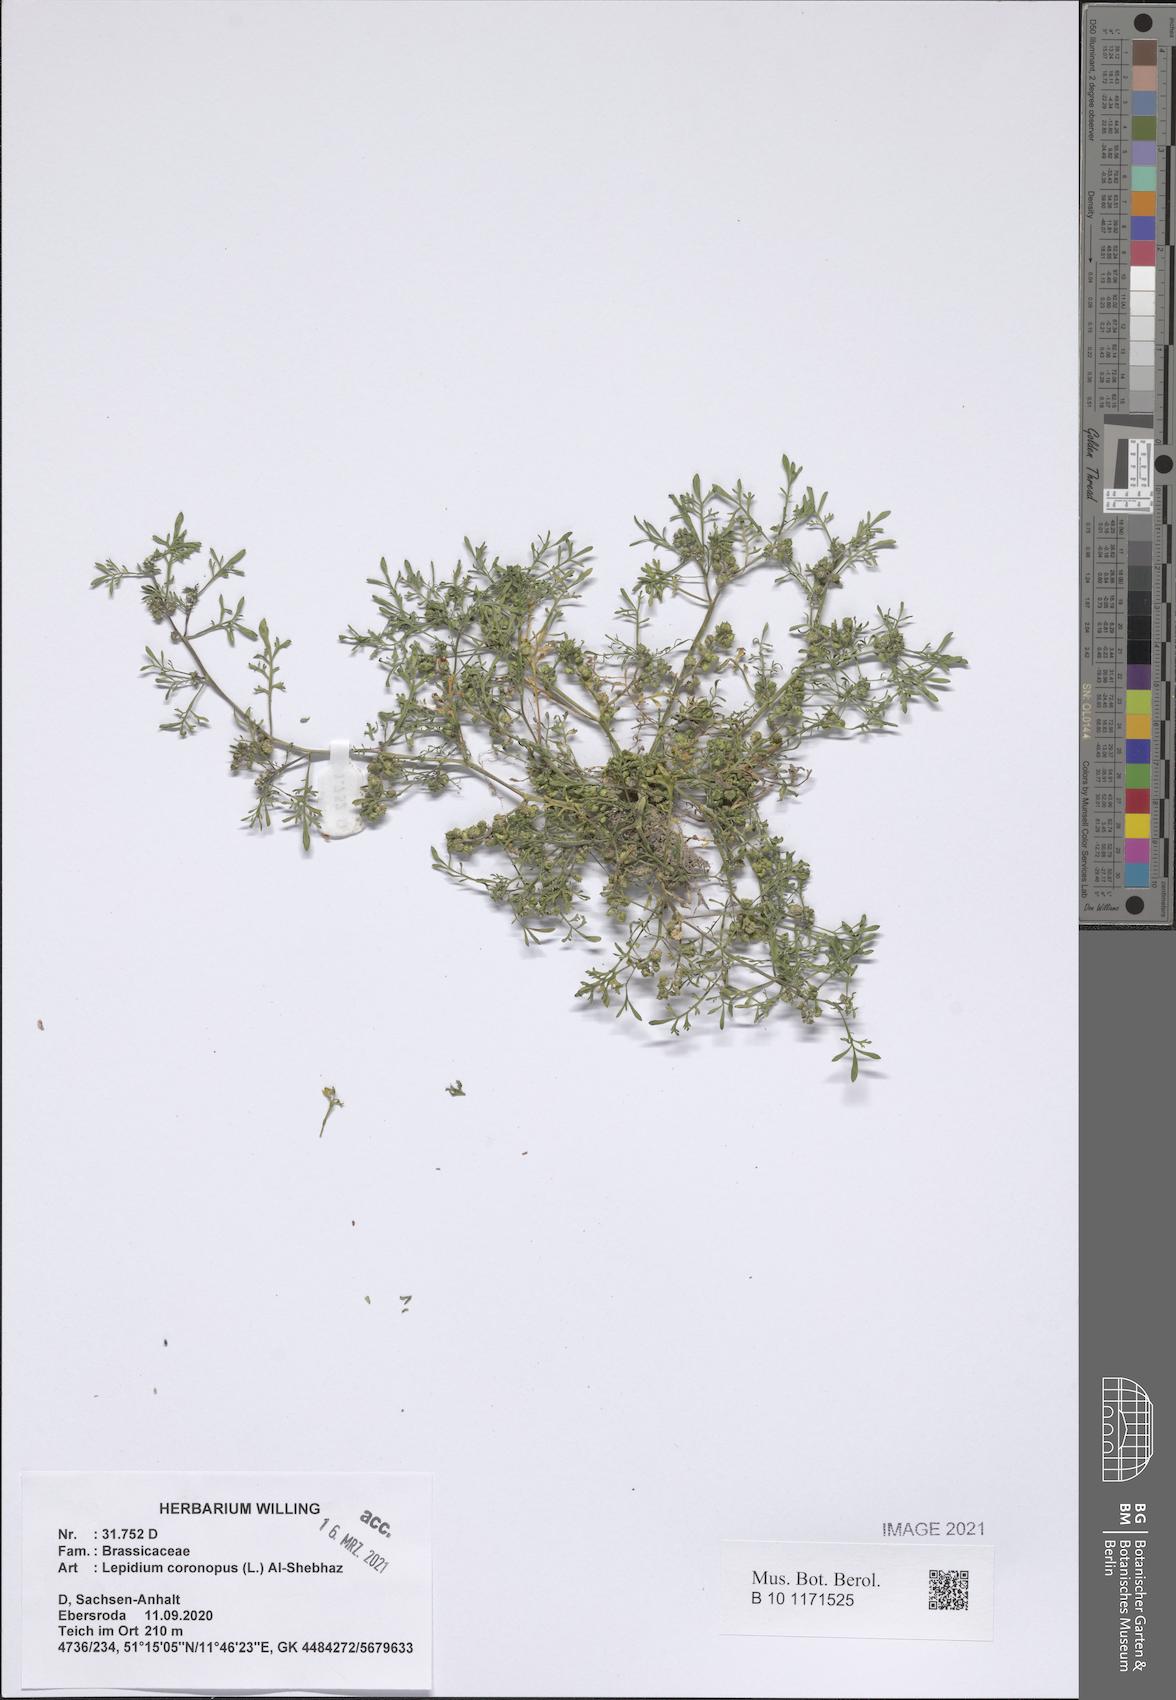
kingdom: Plantae
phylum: Tracheophyta
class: Magnoliopsida
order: Brassicales
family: Brassicaceae
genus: Lepidium
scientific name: Lepidium coronopus
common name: Greater swinecress
